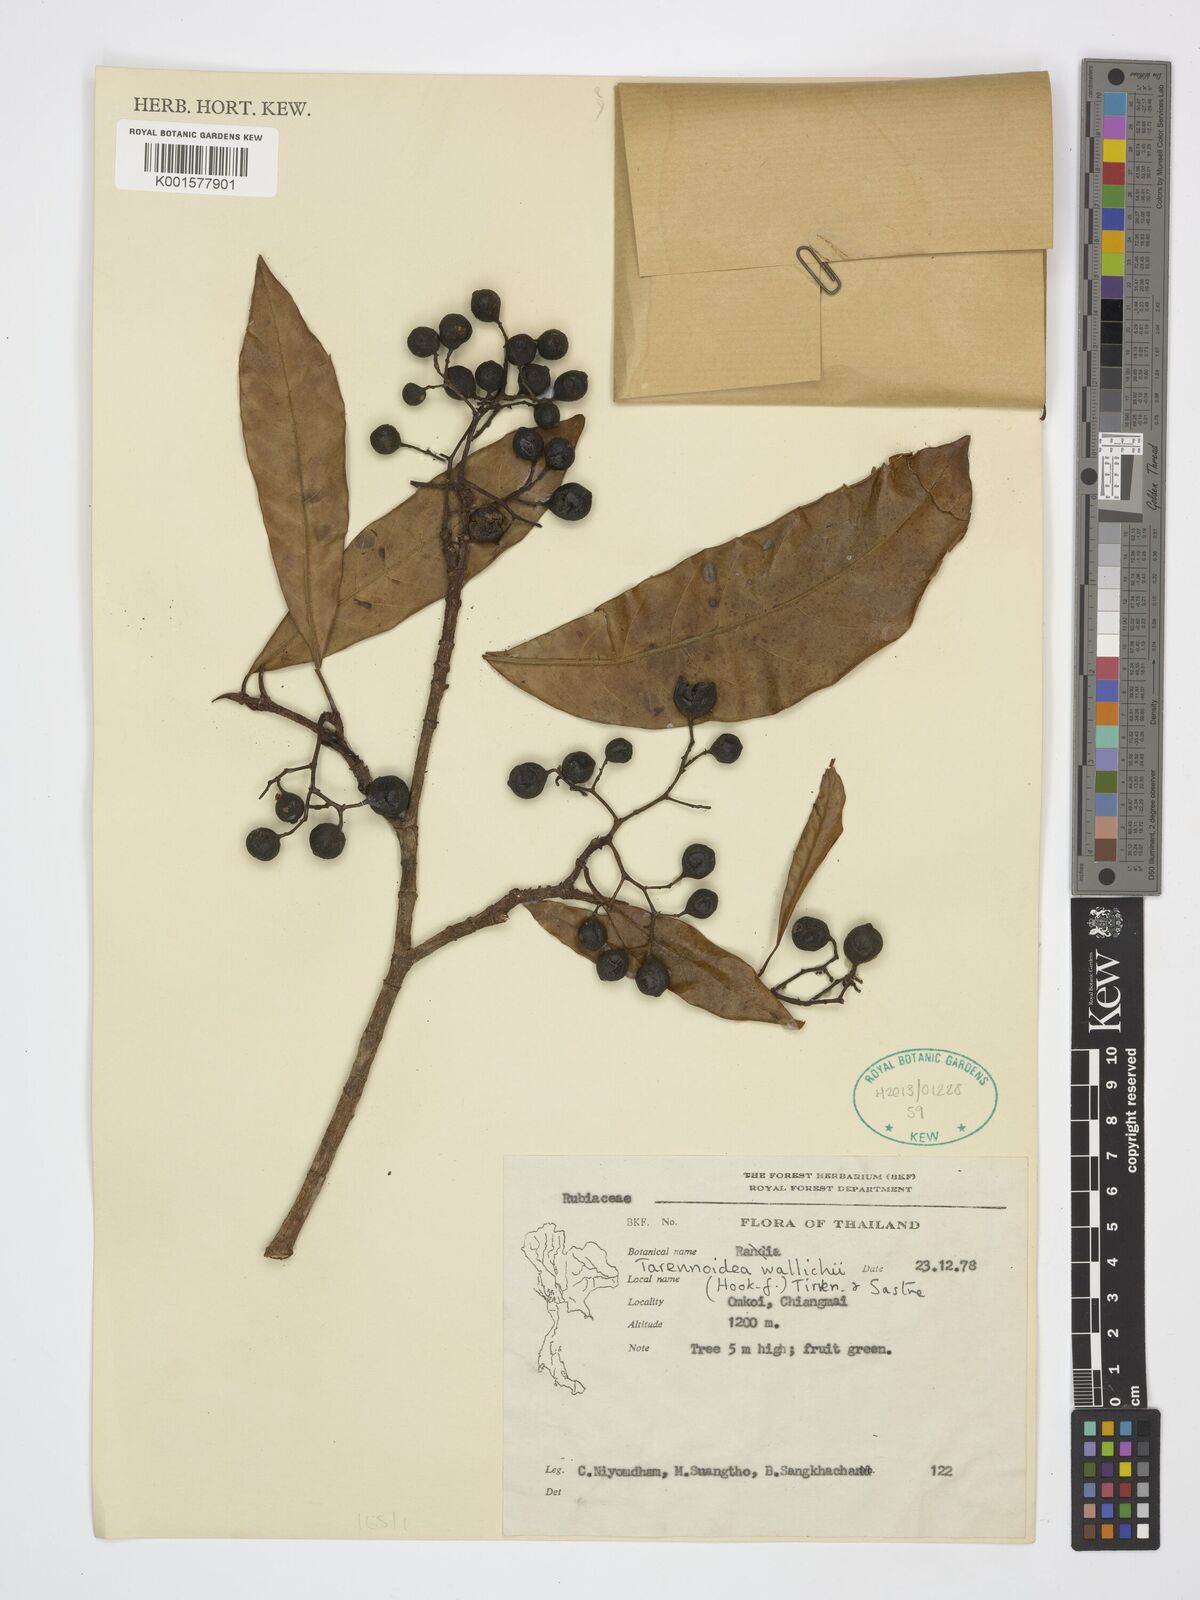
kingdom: Plantae
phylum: Tracheophyta
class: Magnoliopsida
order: Gentianales
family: Rubiaceae
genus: Tarennoidea
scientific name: Tarennoidea wallichii
